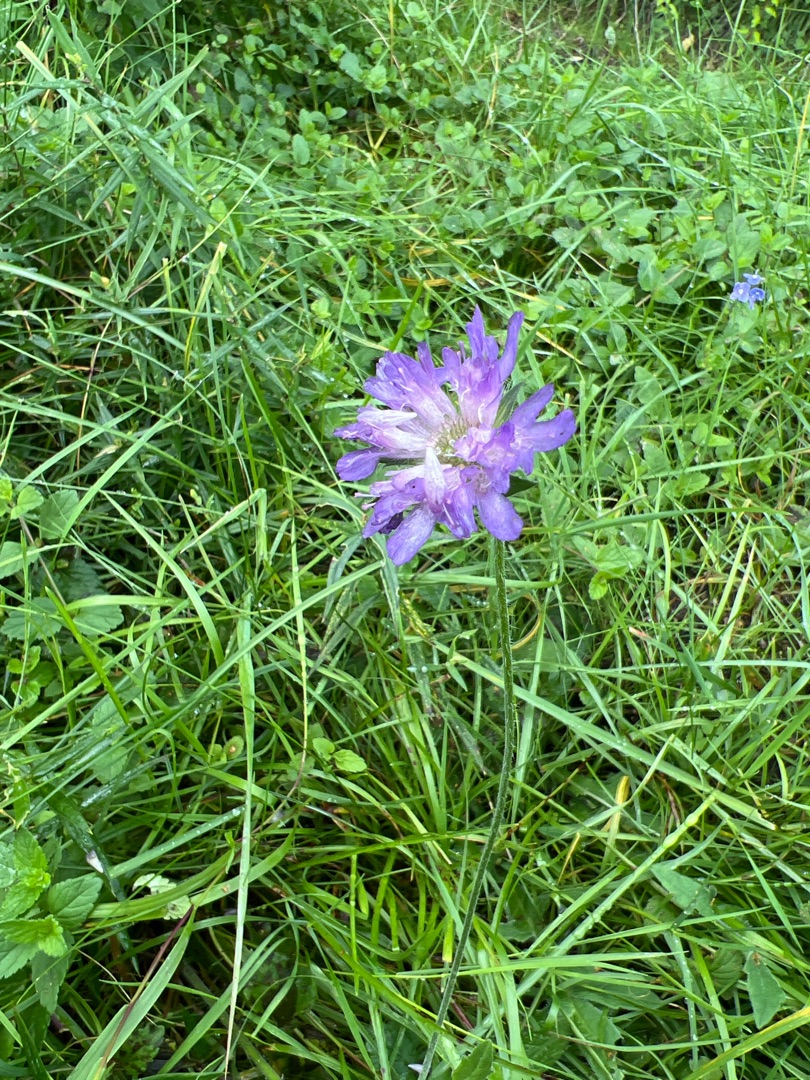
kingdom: Plantae
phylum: Tracheophyta
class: Magnoliopsida
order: Dipsacales
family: Caprifoliaceae
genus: Knautia
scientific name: Knautia arvensis
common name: Blåhat
